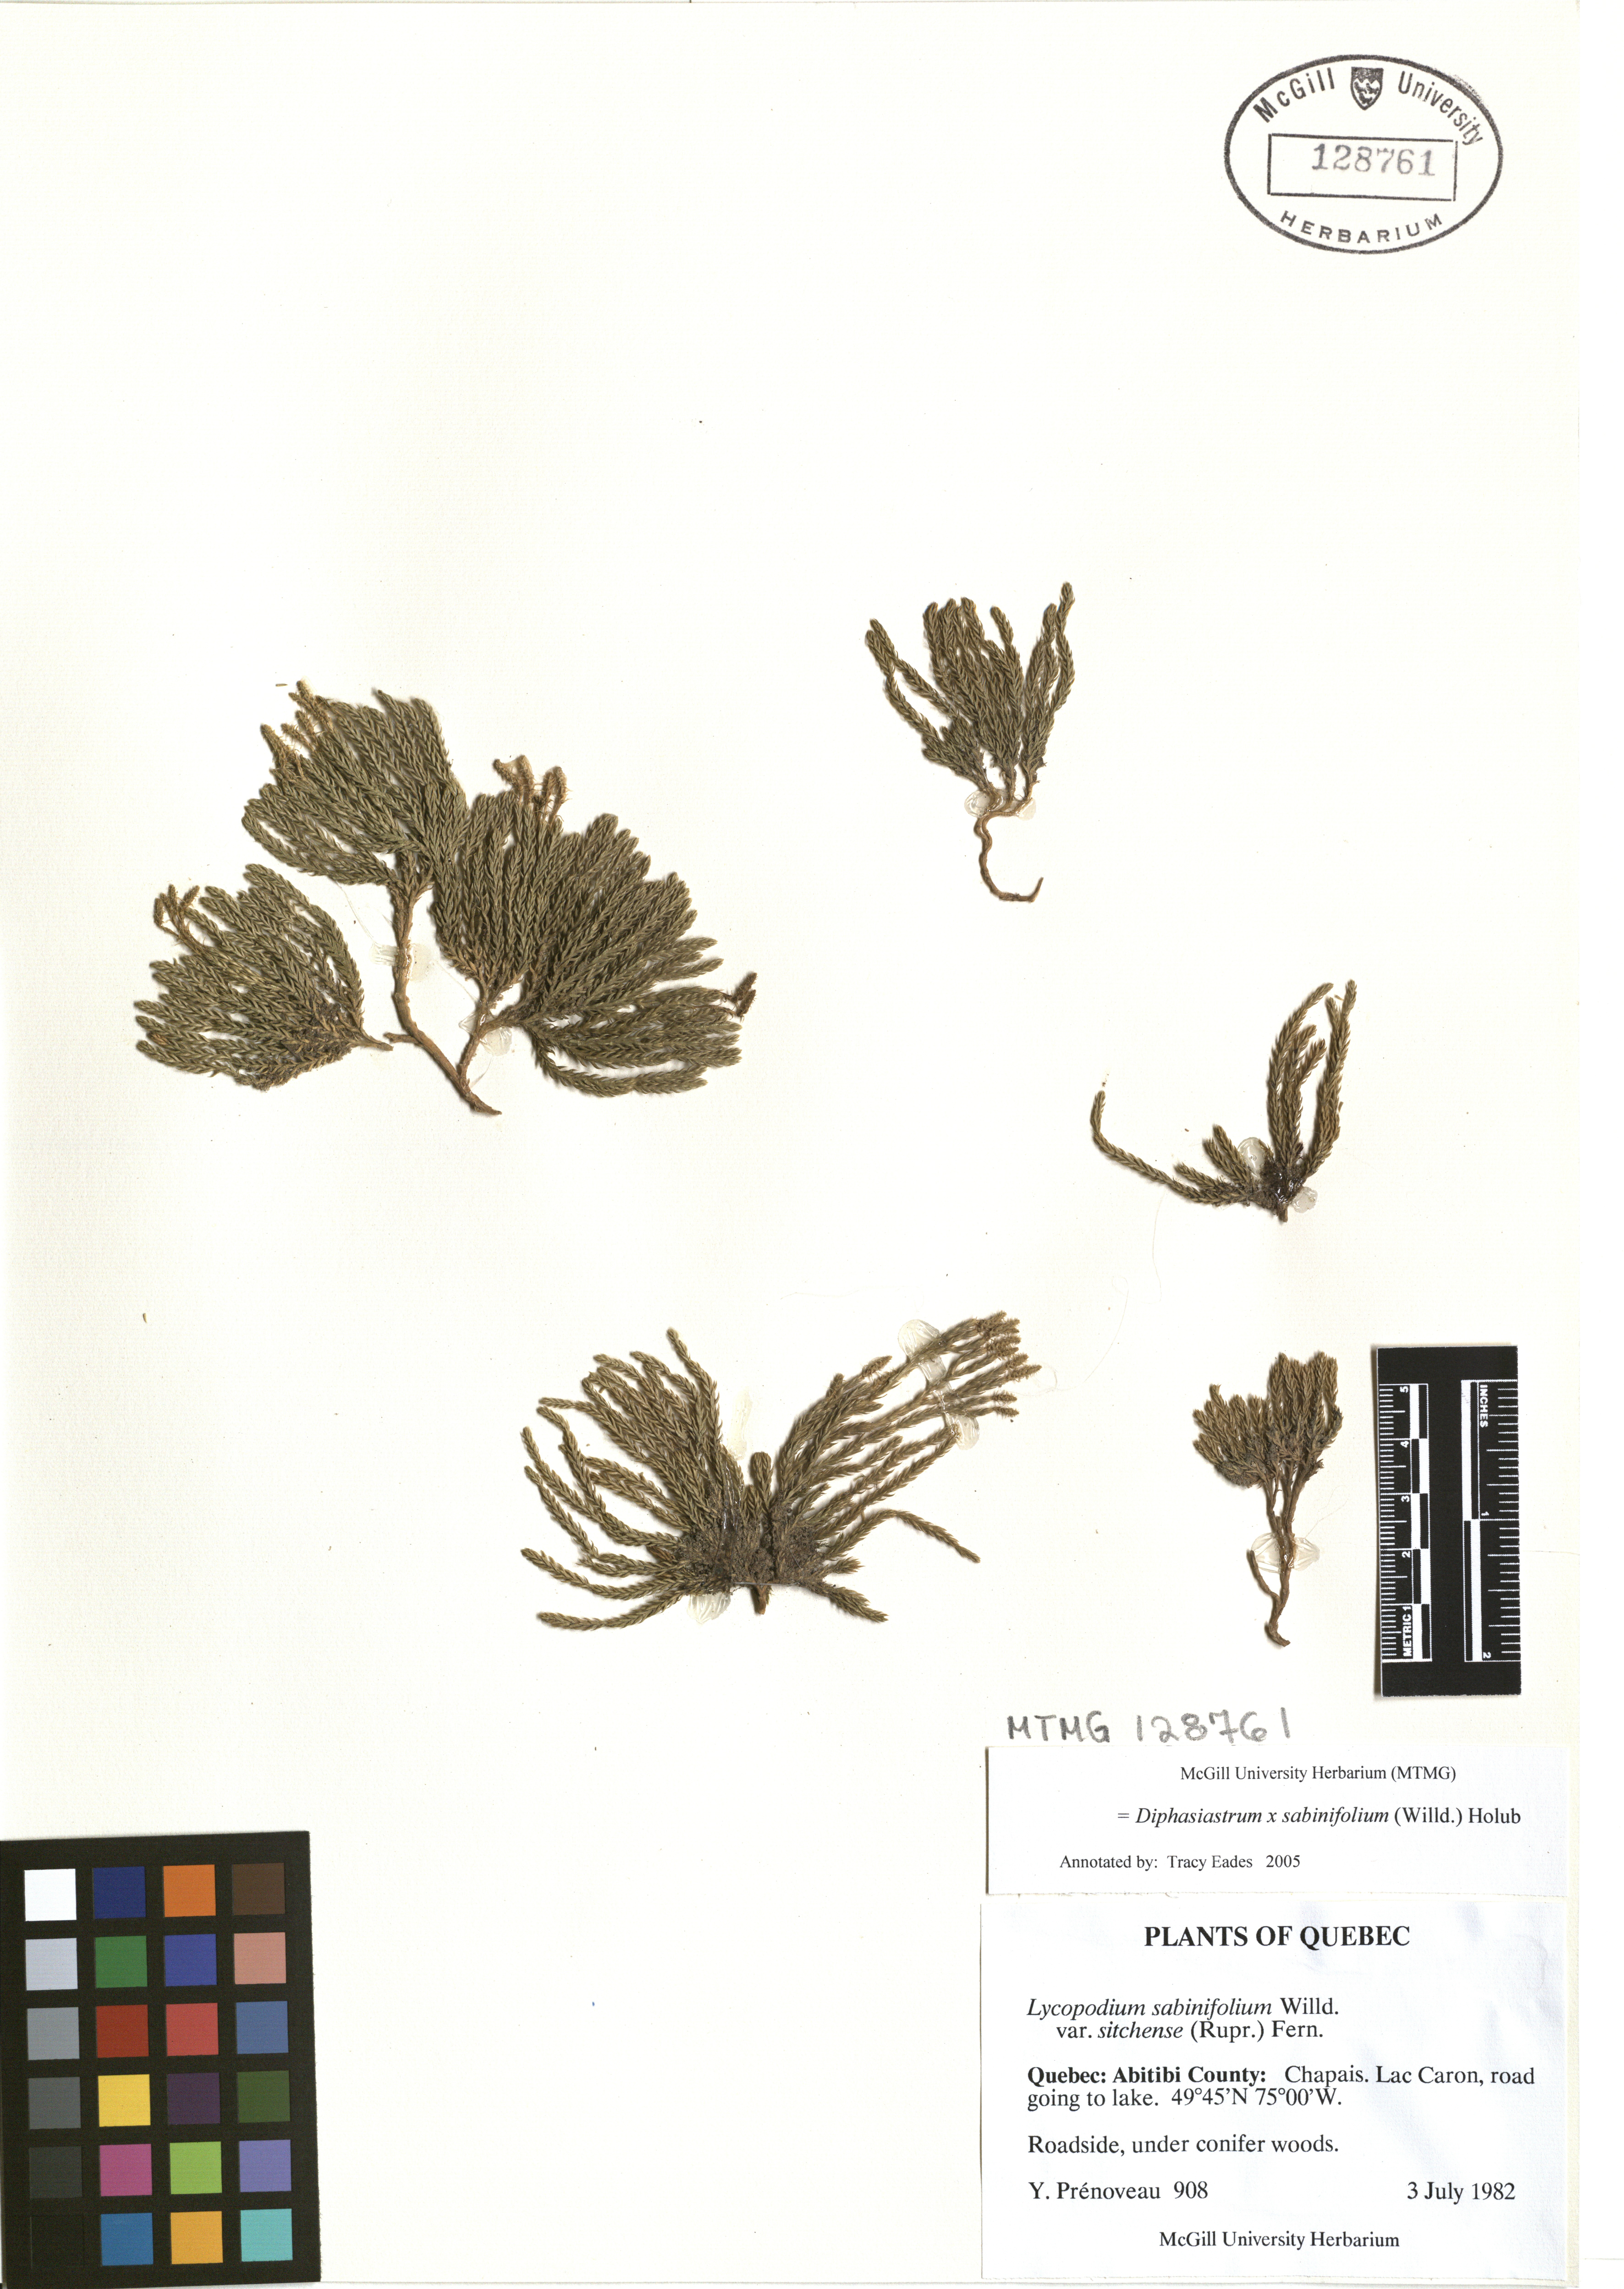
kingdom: Plantae
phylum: Tracheophyta
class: Lycopodiopsida
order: Lycopodiales
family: Lycopodiaceae
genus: Diphasiastrum
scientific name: Diphasiastrum sabinifolium
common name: Juniper clubmoss
